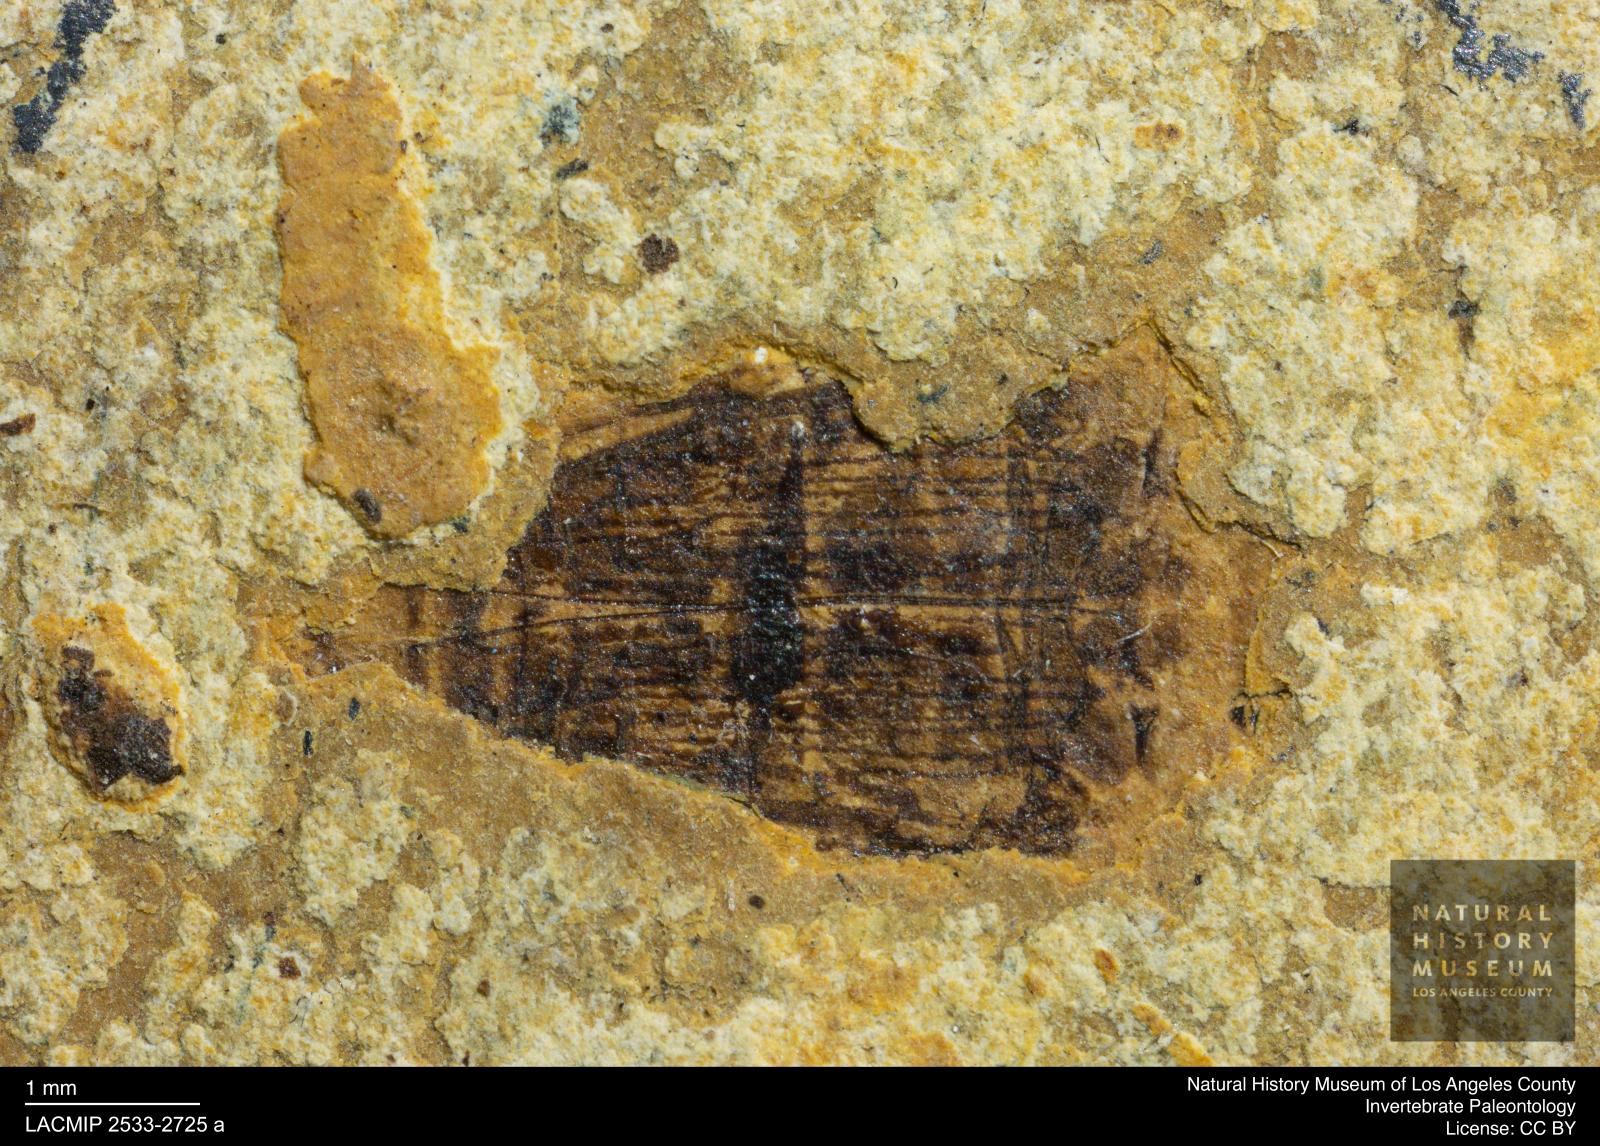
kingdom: Animalia
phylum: Arthropoda
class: Insecta
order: Coleoptera
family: Dytiscidae
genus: Laccophilus
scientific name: Laccophilus Palaeogyrinus strigatus
